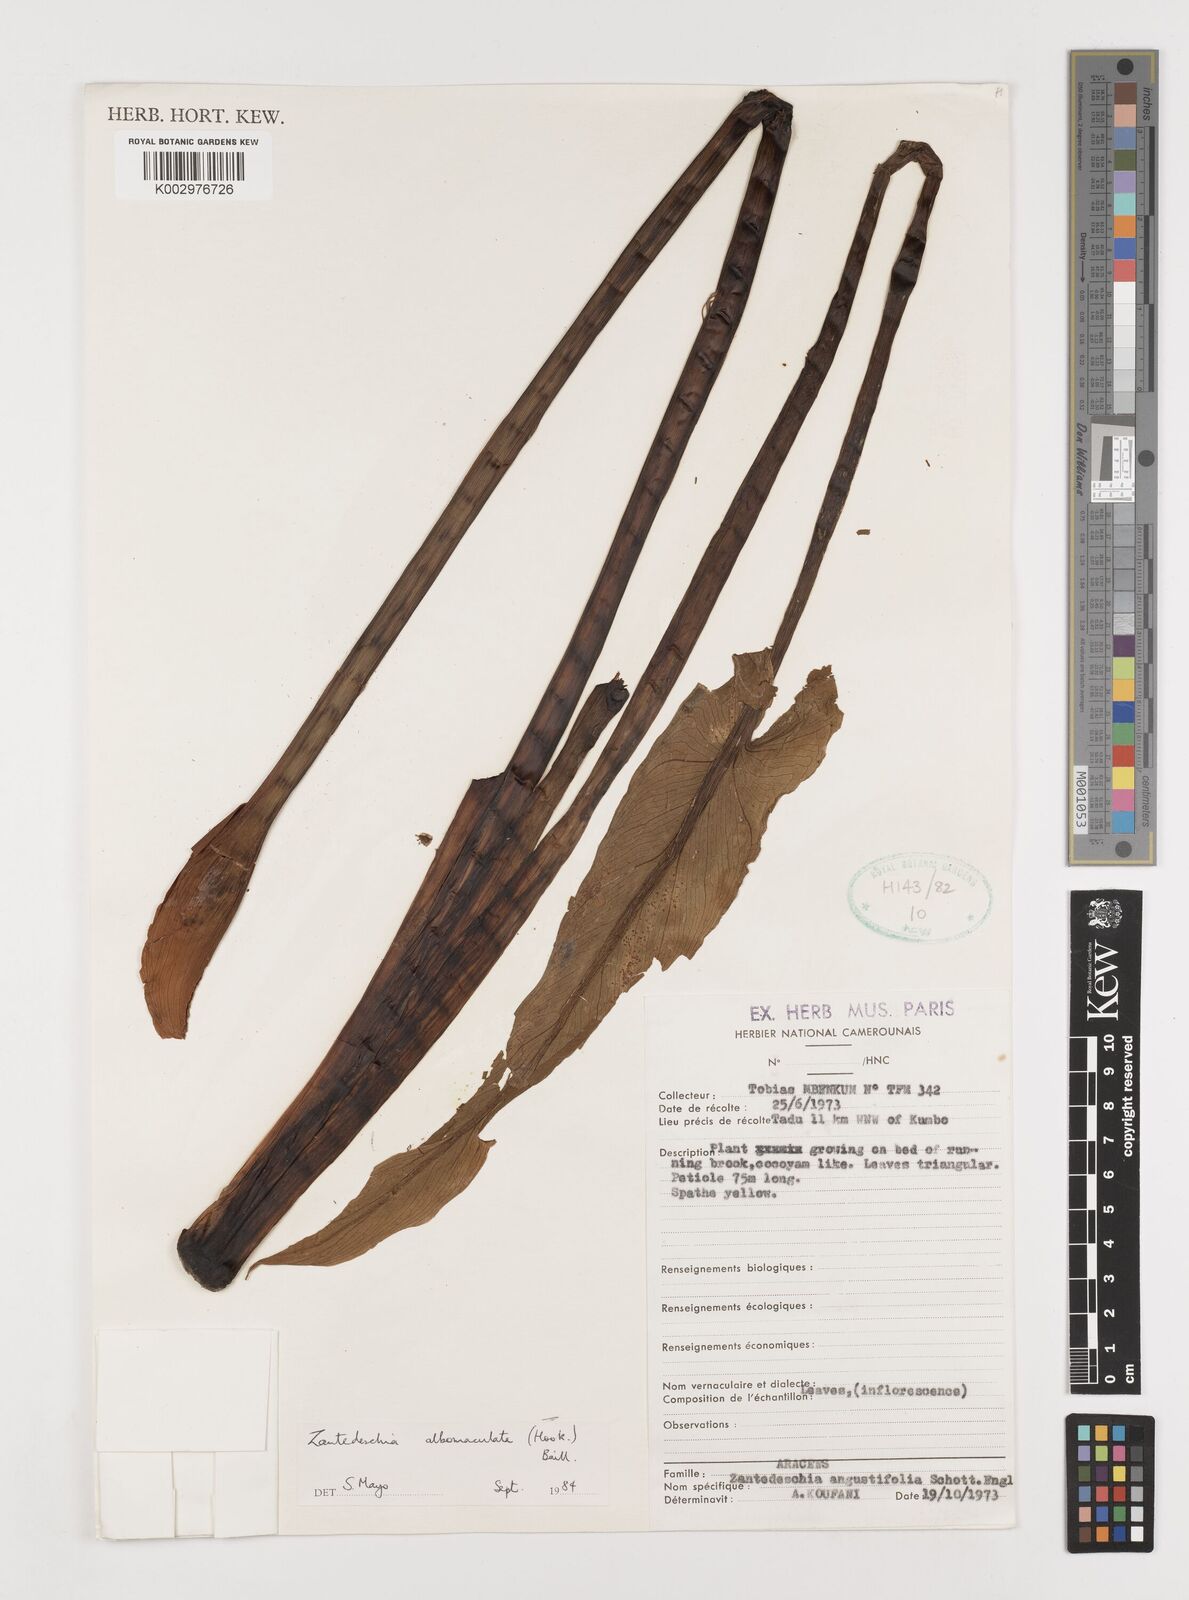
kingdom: Plantae
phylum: Tracheophyta
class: Liliopsida
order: Alismatales
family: Araceae
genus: Zantedeschia
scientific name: Zantedeschia albomaculata
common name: Spotted calla lily
